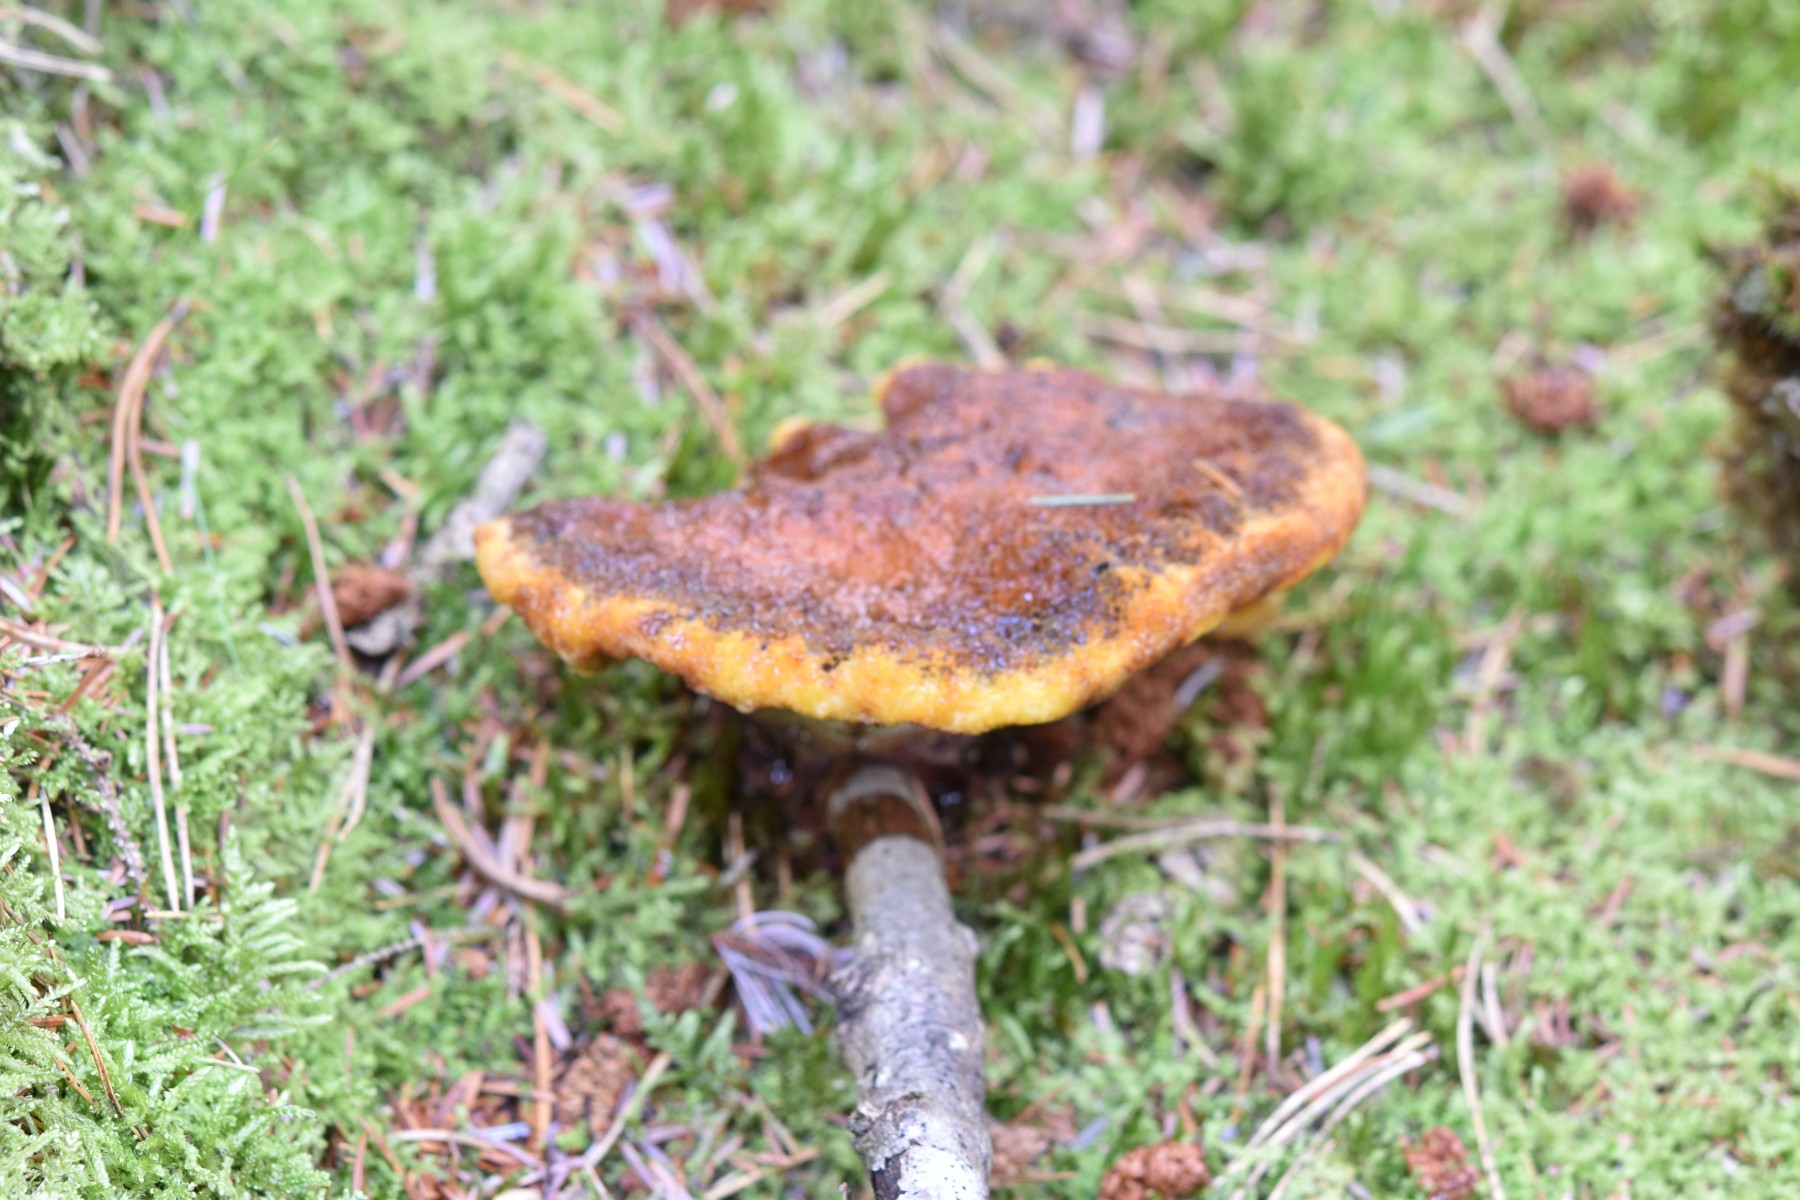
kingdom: Fungi
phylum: Basidiomycota
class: Agaricomycetes
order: Polyporales
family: Laetiporaceae
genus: Phaeolus
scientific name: Phaeolus schweinitzii
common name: brunporesvamp
